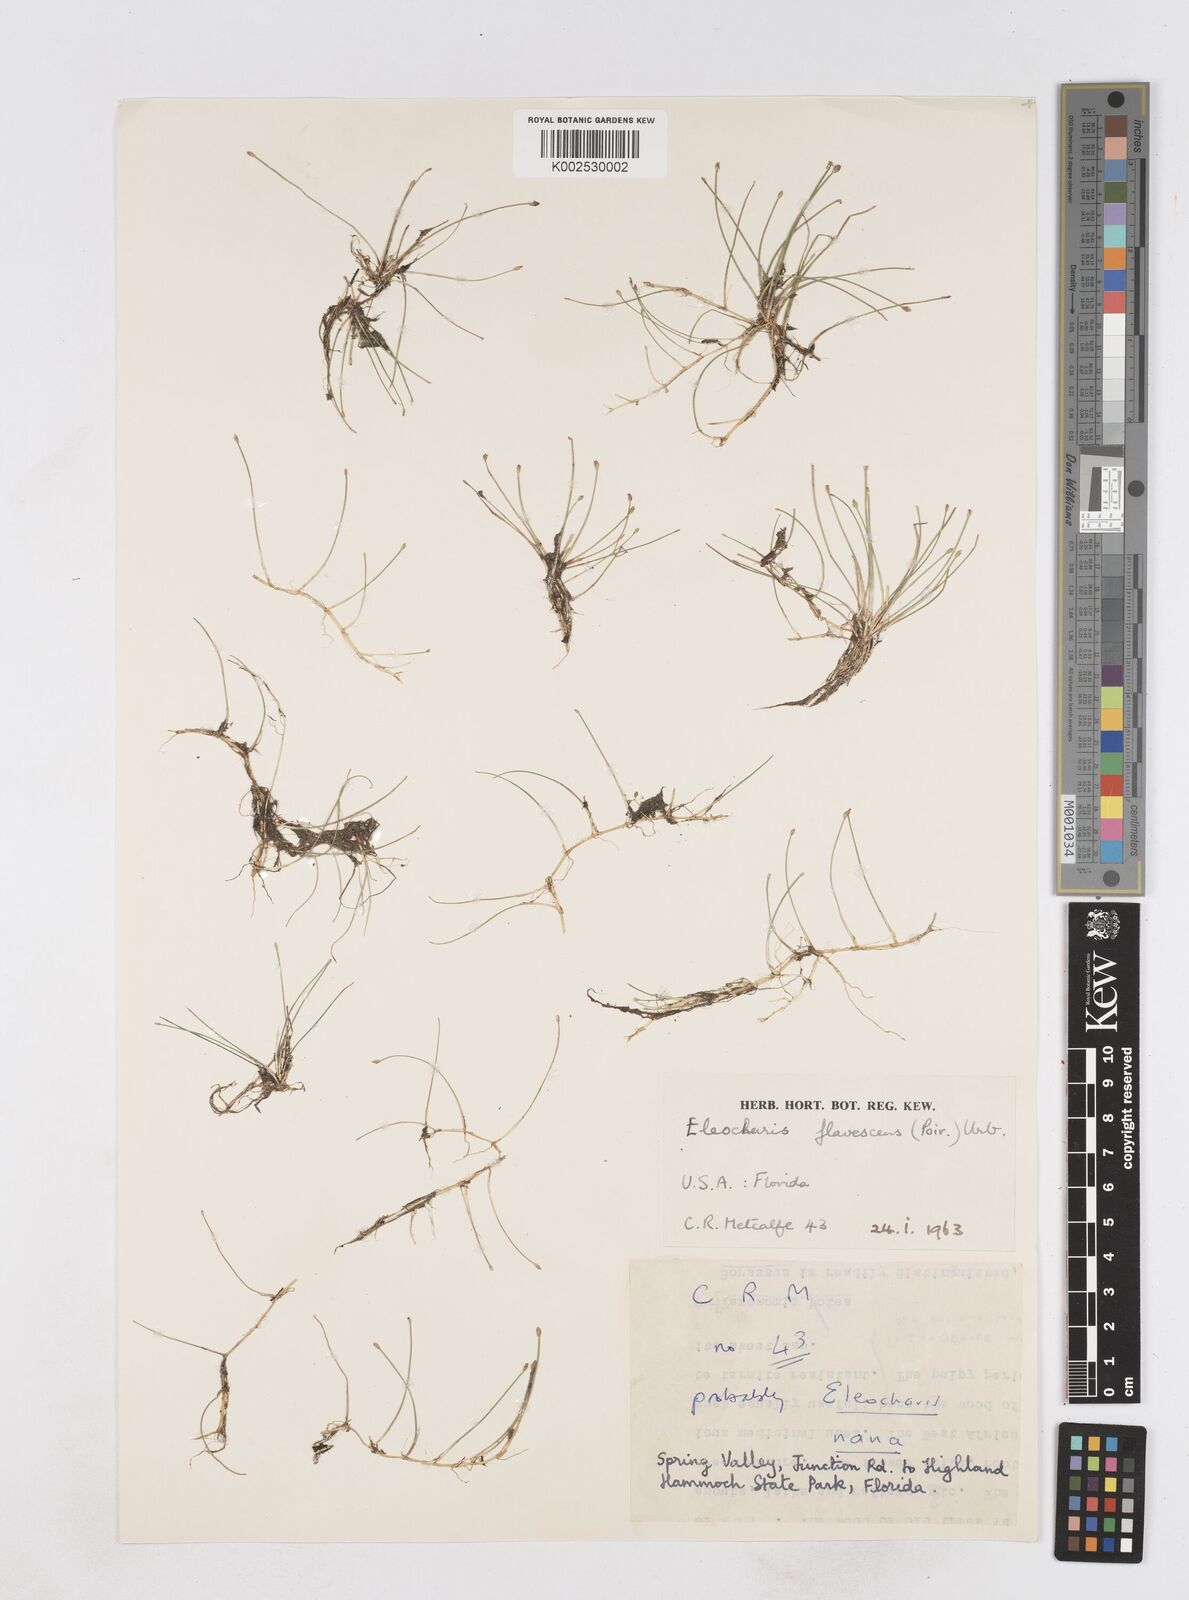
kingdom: Plantae
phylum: Tracheophyta
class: Liliopsida
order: Poales
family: Cyperaceae
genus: Eleocharis
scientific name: Eleocharis flavescens
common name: Yellow spikerush
